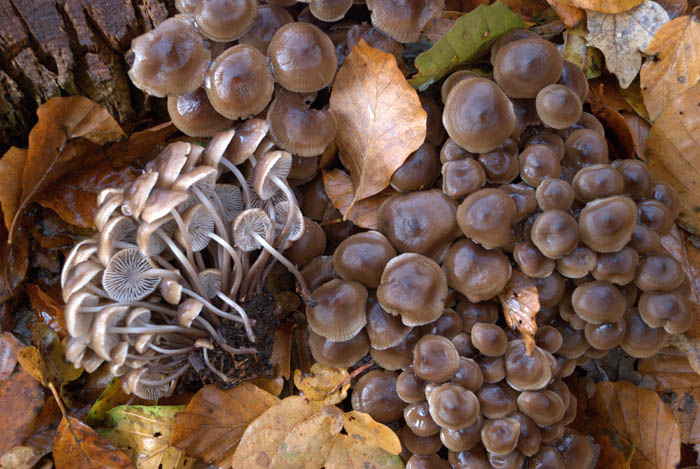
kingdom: Fungi
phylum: Basidiomycota
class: Agaricomycetes
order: Agaricales
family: Mycenaceae
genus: Mycena
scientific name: Mycena maculata
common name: rødplettet huesvamp
